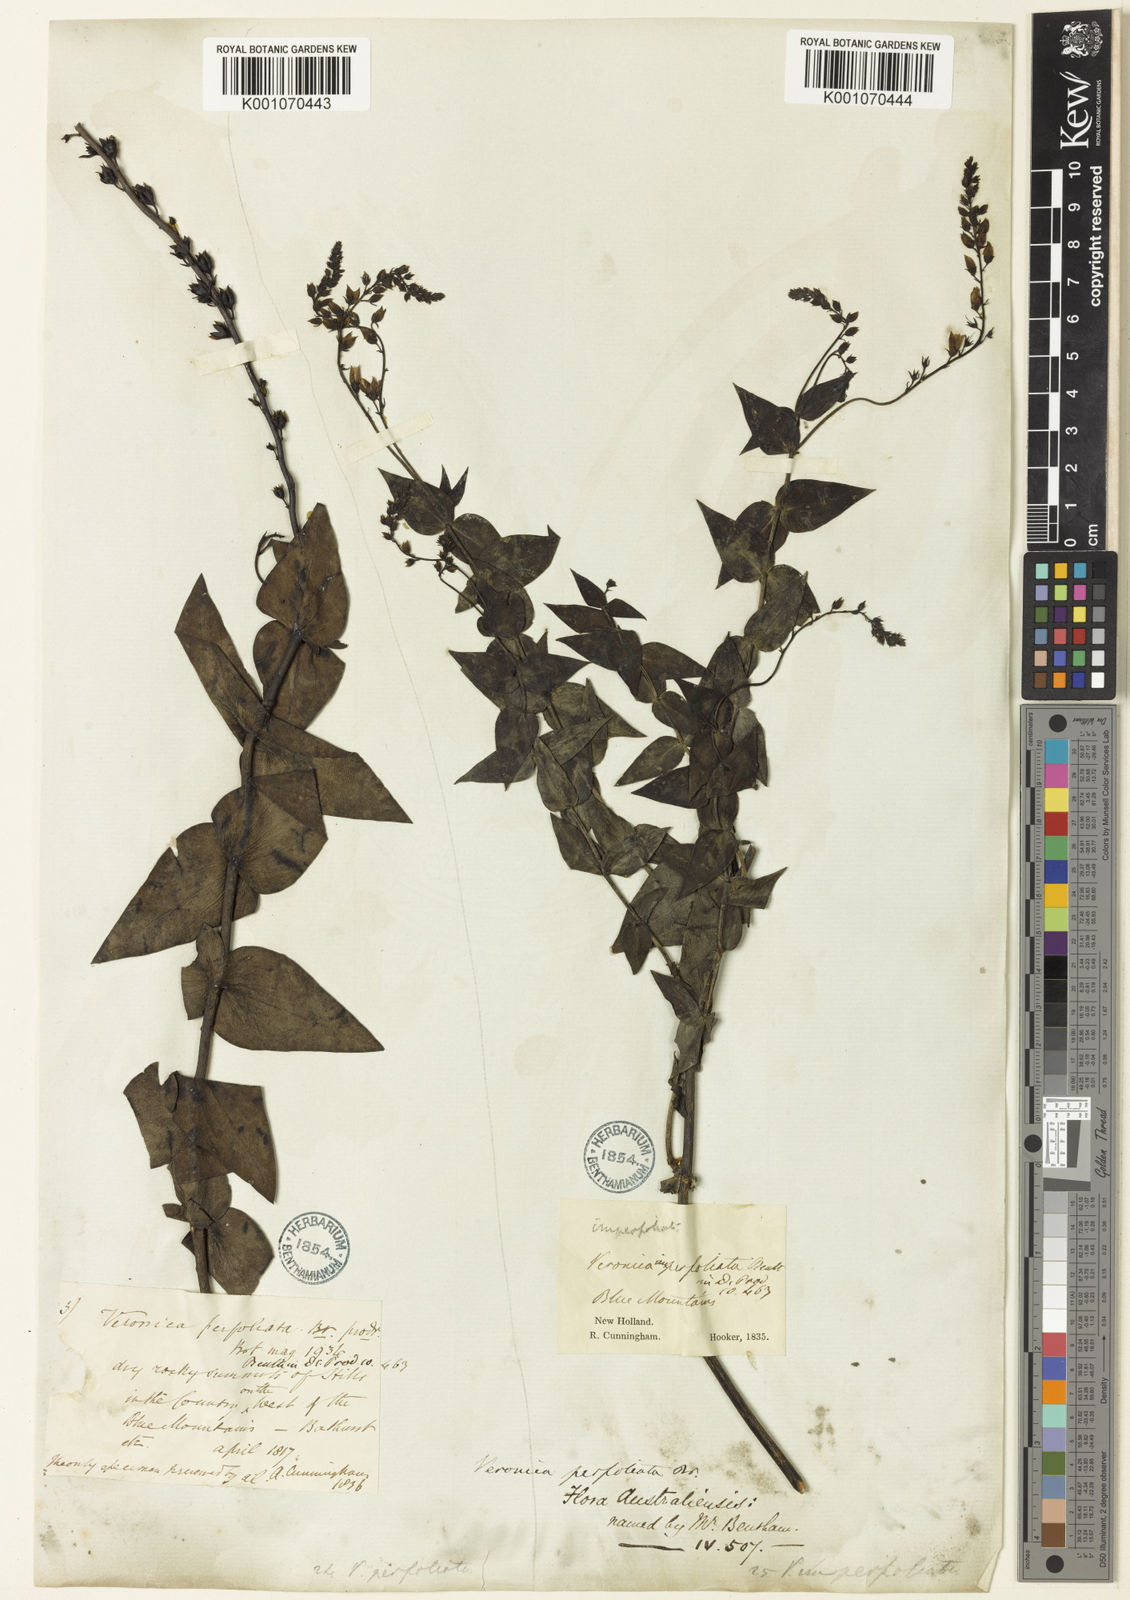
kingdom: Plantae
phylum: Tracheophyta
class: Magnoliopsida
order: Lamiales
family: Plantaginaceae
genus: Veronica
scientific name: Veronica
